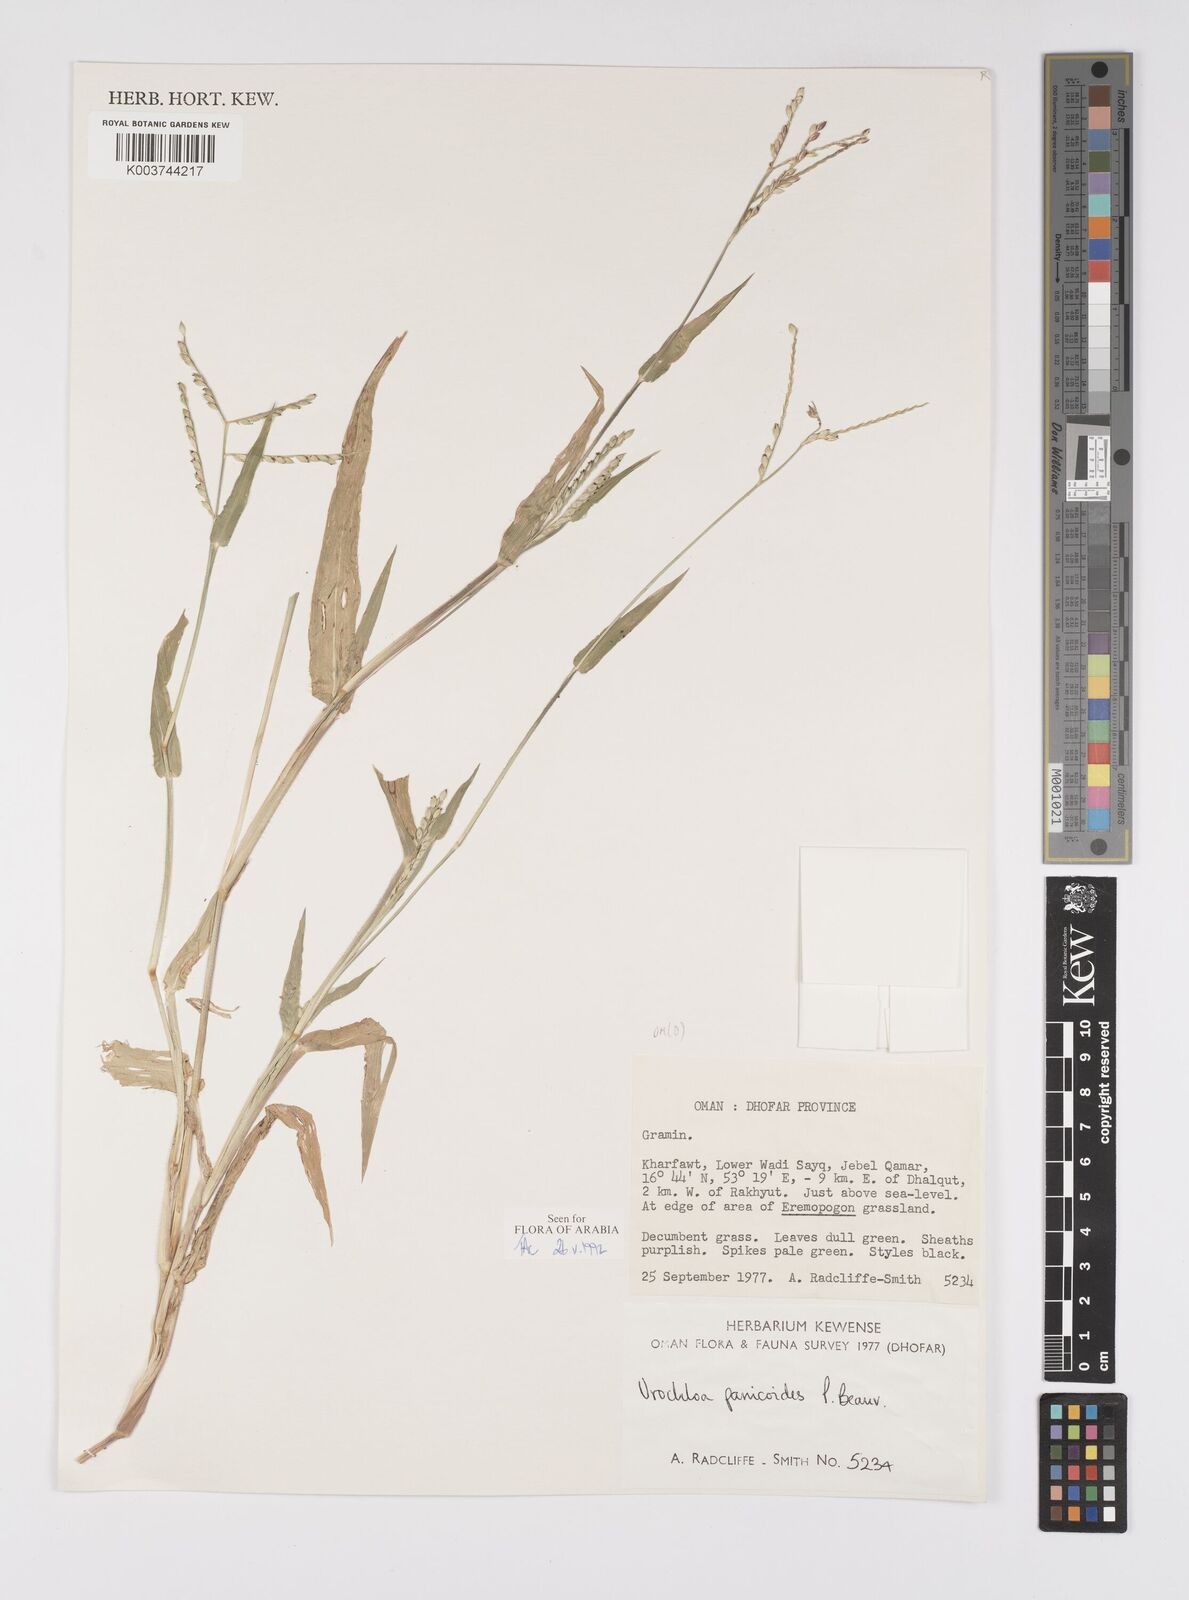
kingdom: Plantae
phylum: Tracheophyta
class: Liliopsida
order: Poales
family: Poaceae
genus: Urochloa
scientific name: Urochloa panicoides
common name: Sharp-flowered signal-grass
